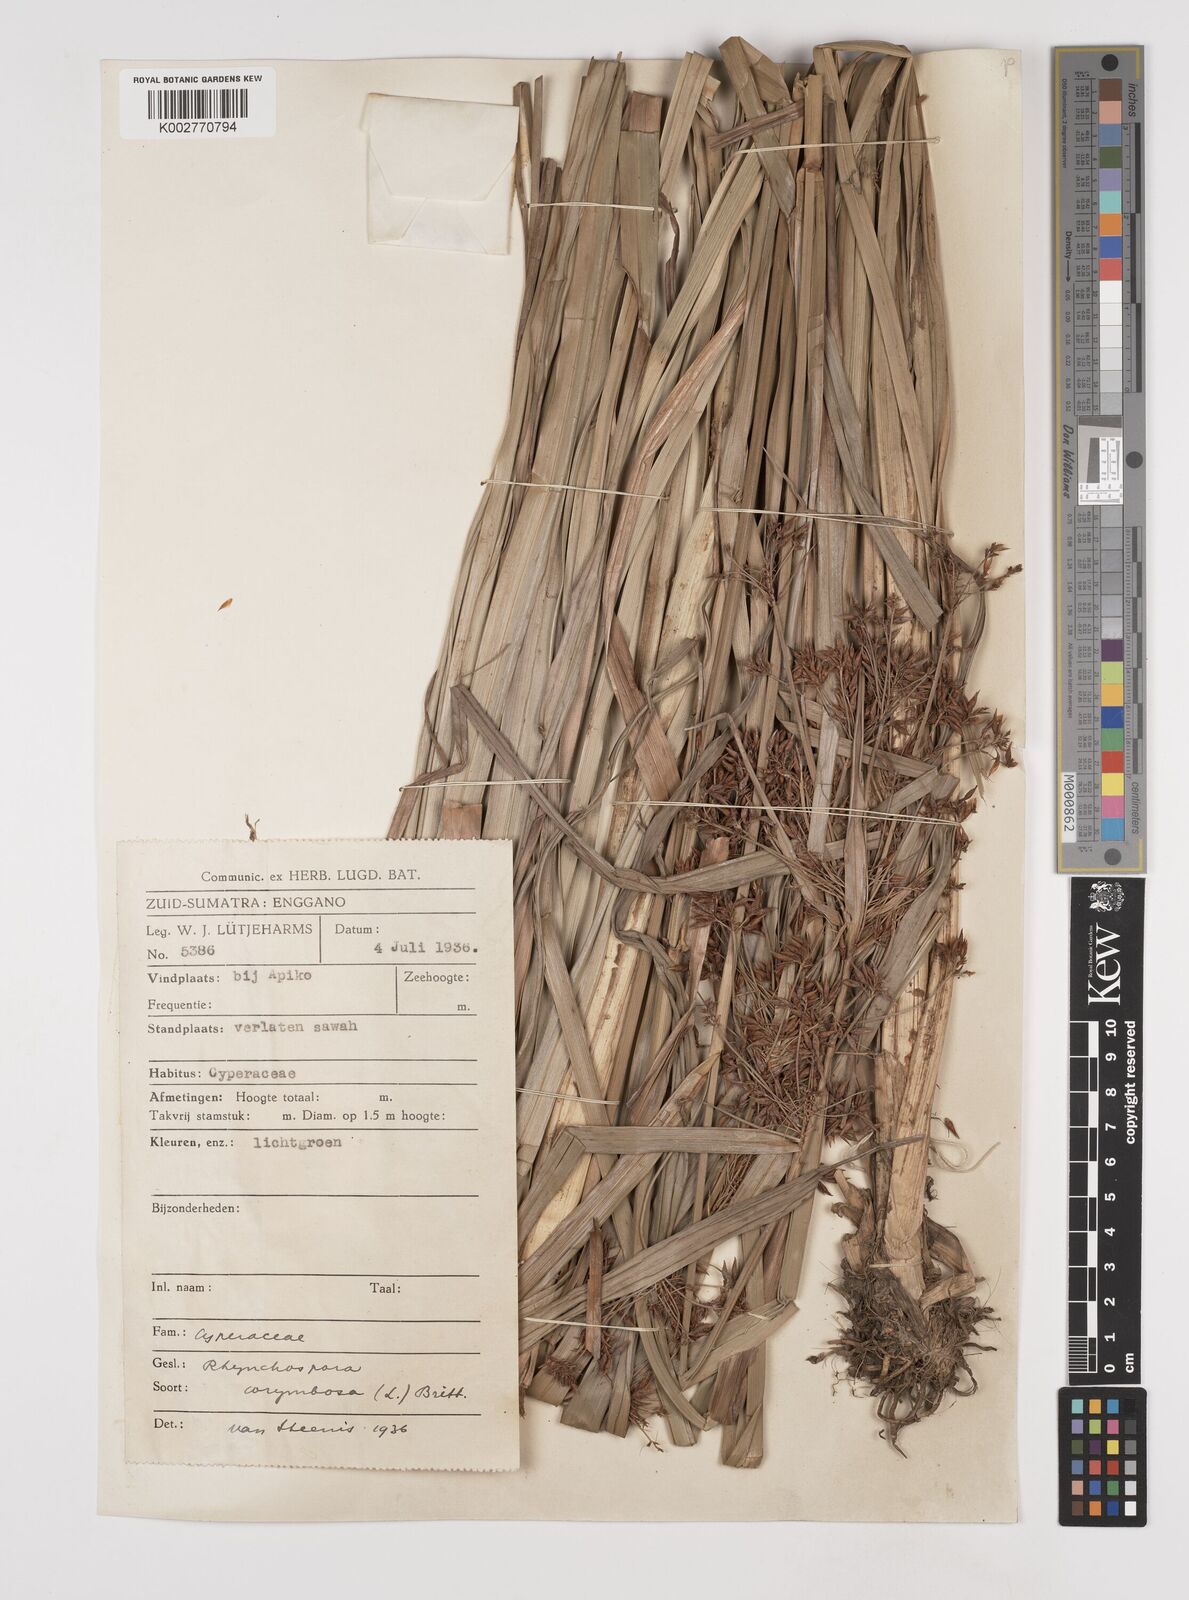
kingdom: Plantae
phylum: Tracheophyta
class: Liliopsida
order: Poales
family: Cyperaceae
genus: Rhynchospora
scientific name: Rhynchospora corymbosa
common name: Golden beak sedge
